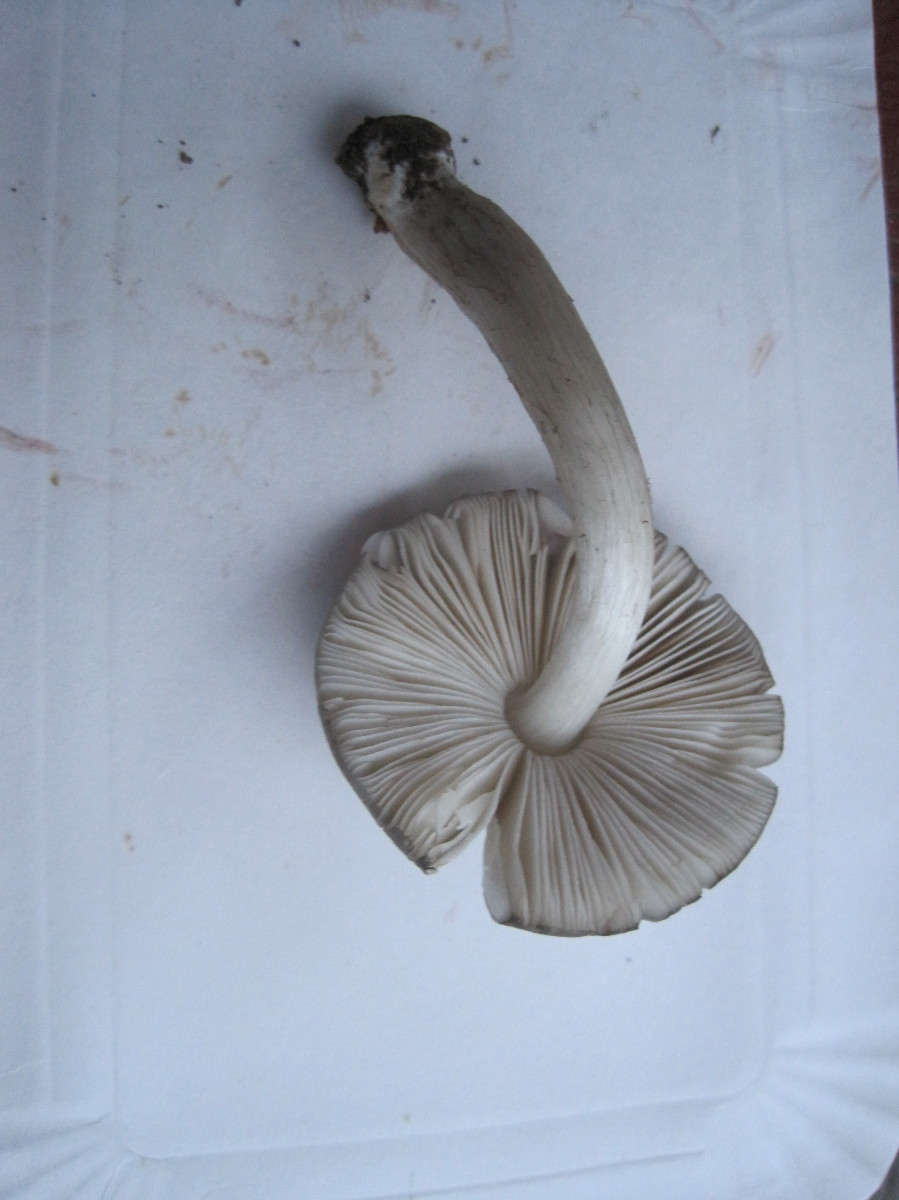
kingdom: Fungi
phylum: Basidiomycota
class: Agaricomycetes
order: Agaricales
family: Pluteaceae
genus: Pluteus
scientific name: Pluteus salicinus
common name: stiv skærmhat
